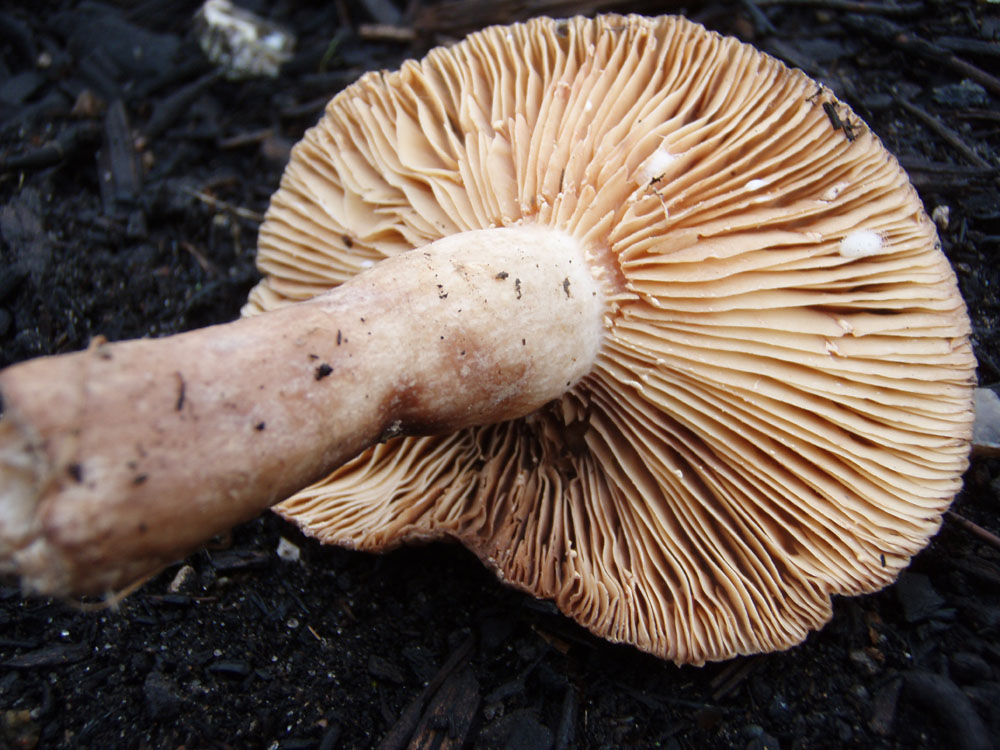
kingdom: Fungi
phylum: Basidiomycota
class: Agaricomycetes
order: Russulales
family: Russulaceae
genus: Lactarius
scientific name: Lactarius ruginosus
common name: gråbrun mælkehat
